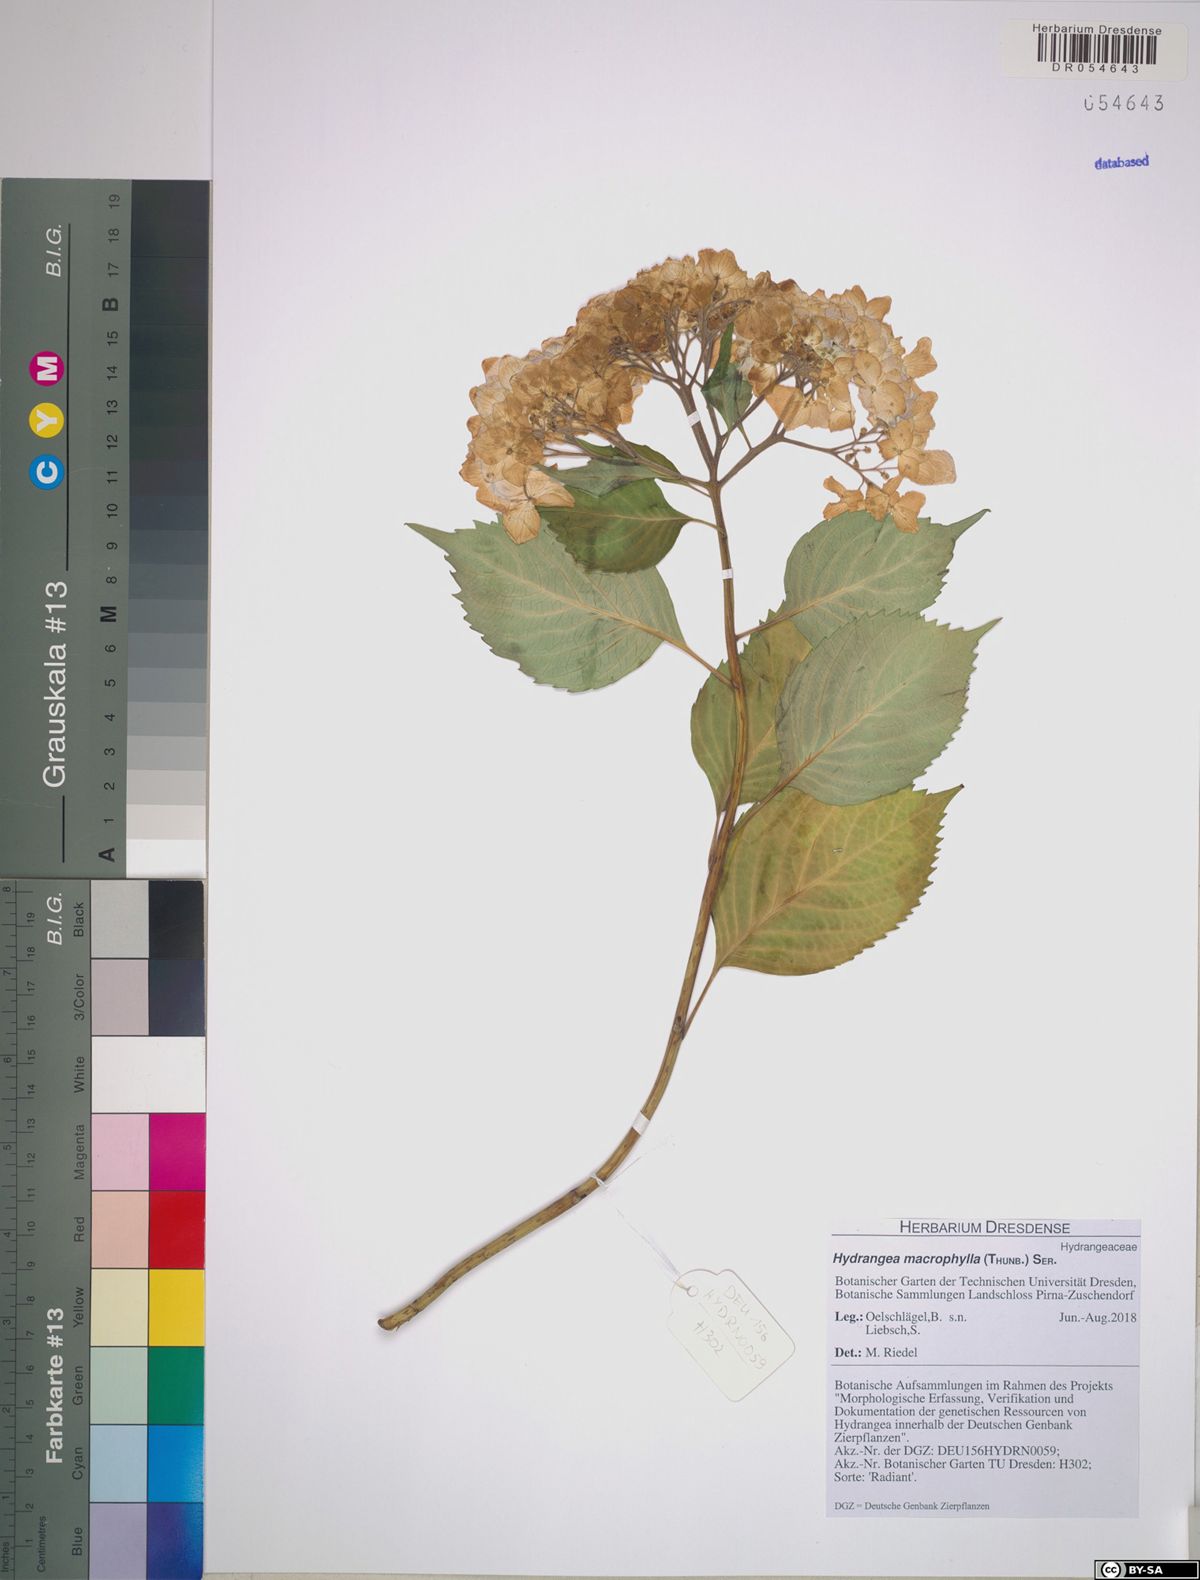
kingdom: Plantae
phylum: Tracheophyta
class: Magnoliopsida
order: Cornales
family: Hydrangeaceae
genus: Hydrangea
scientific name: Hydrangea macrophylla
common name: Hydrangea
